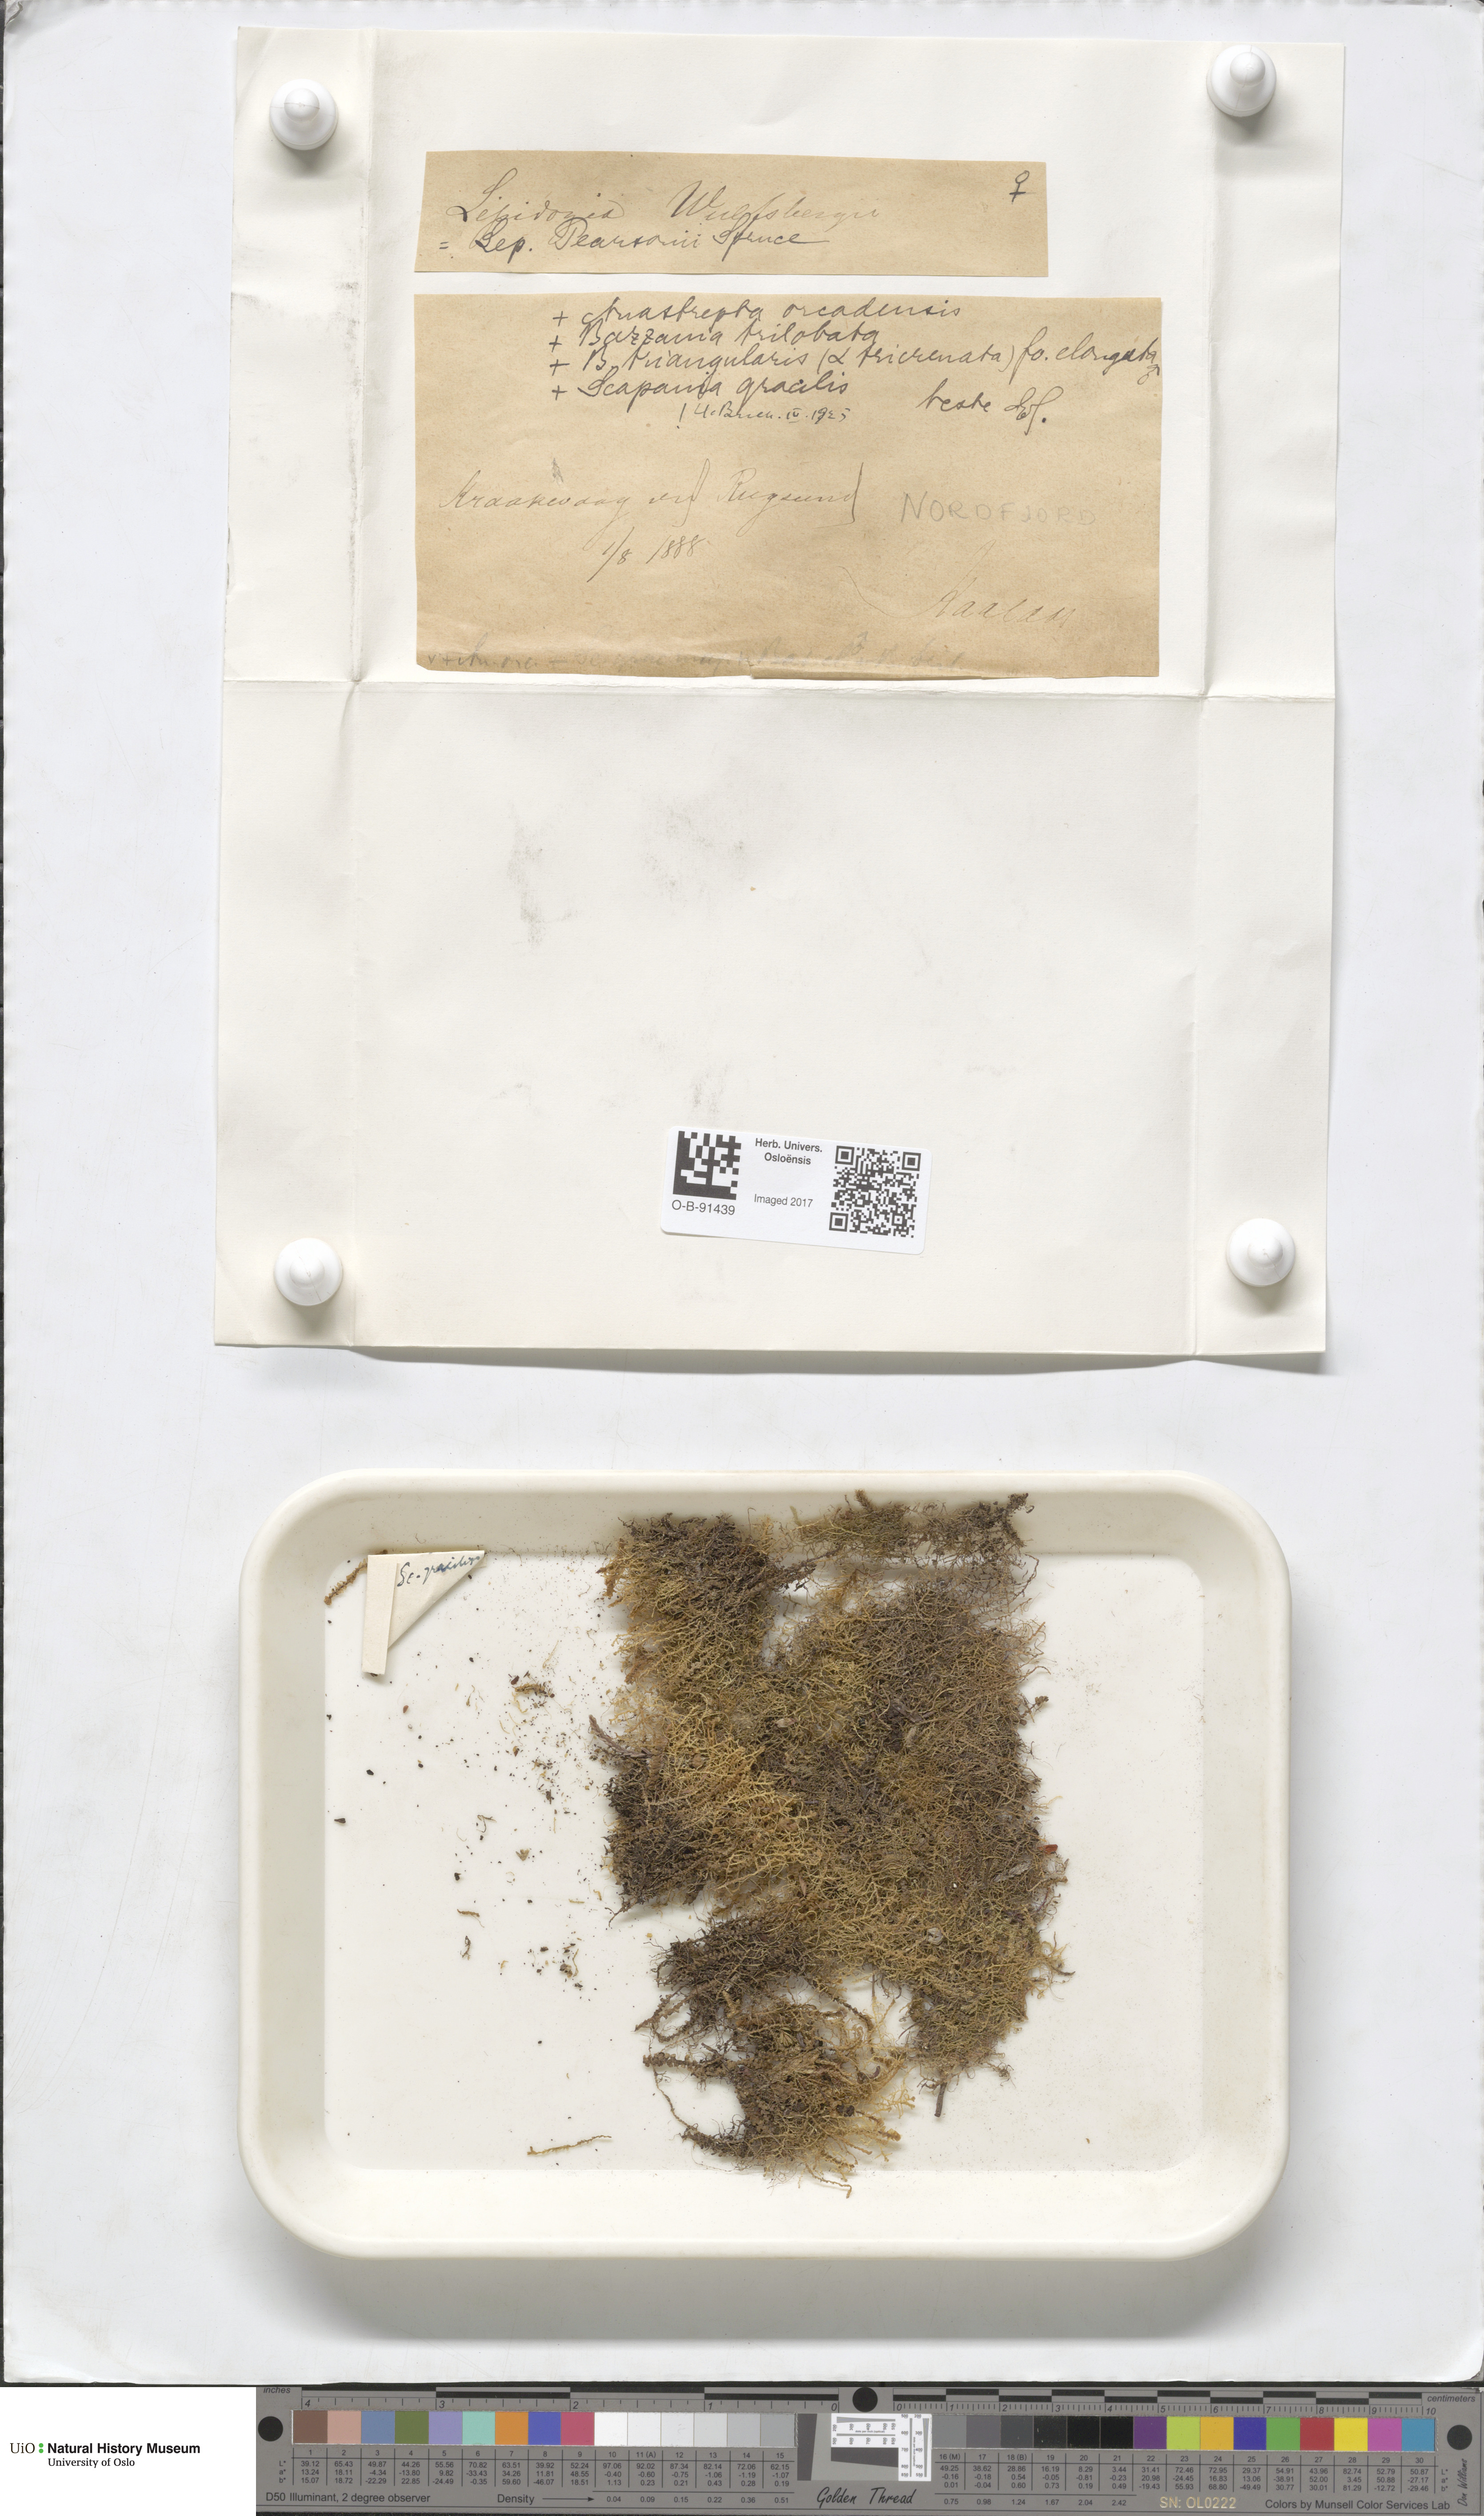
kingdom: Plantae
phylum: Marchantiophyta
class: Jungermanniopsida
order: Jungermanniales
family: Lepidoziaceae
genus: Lepidozia
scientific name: Lepidozia pearsonii
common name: Pearson's fingerwort
